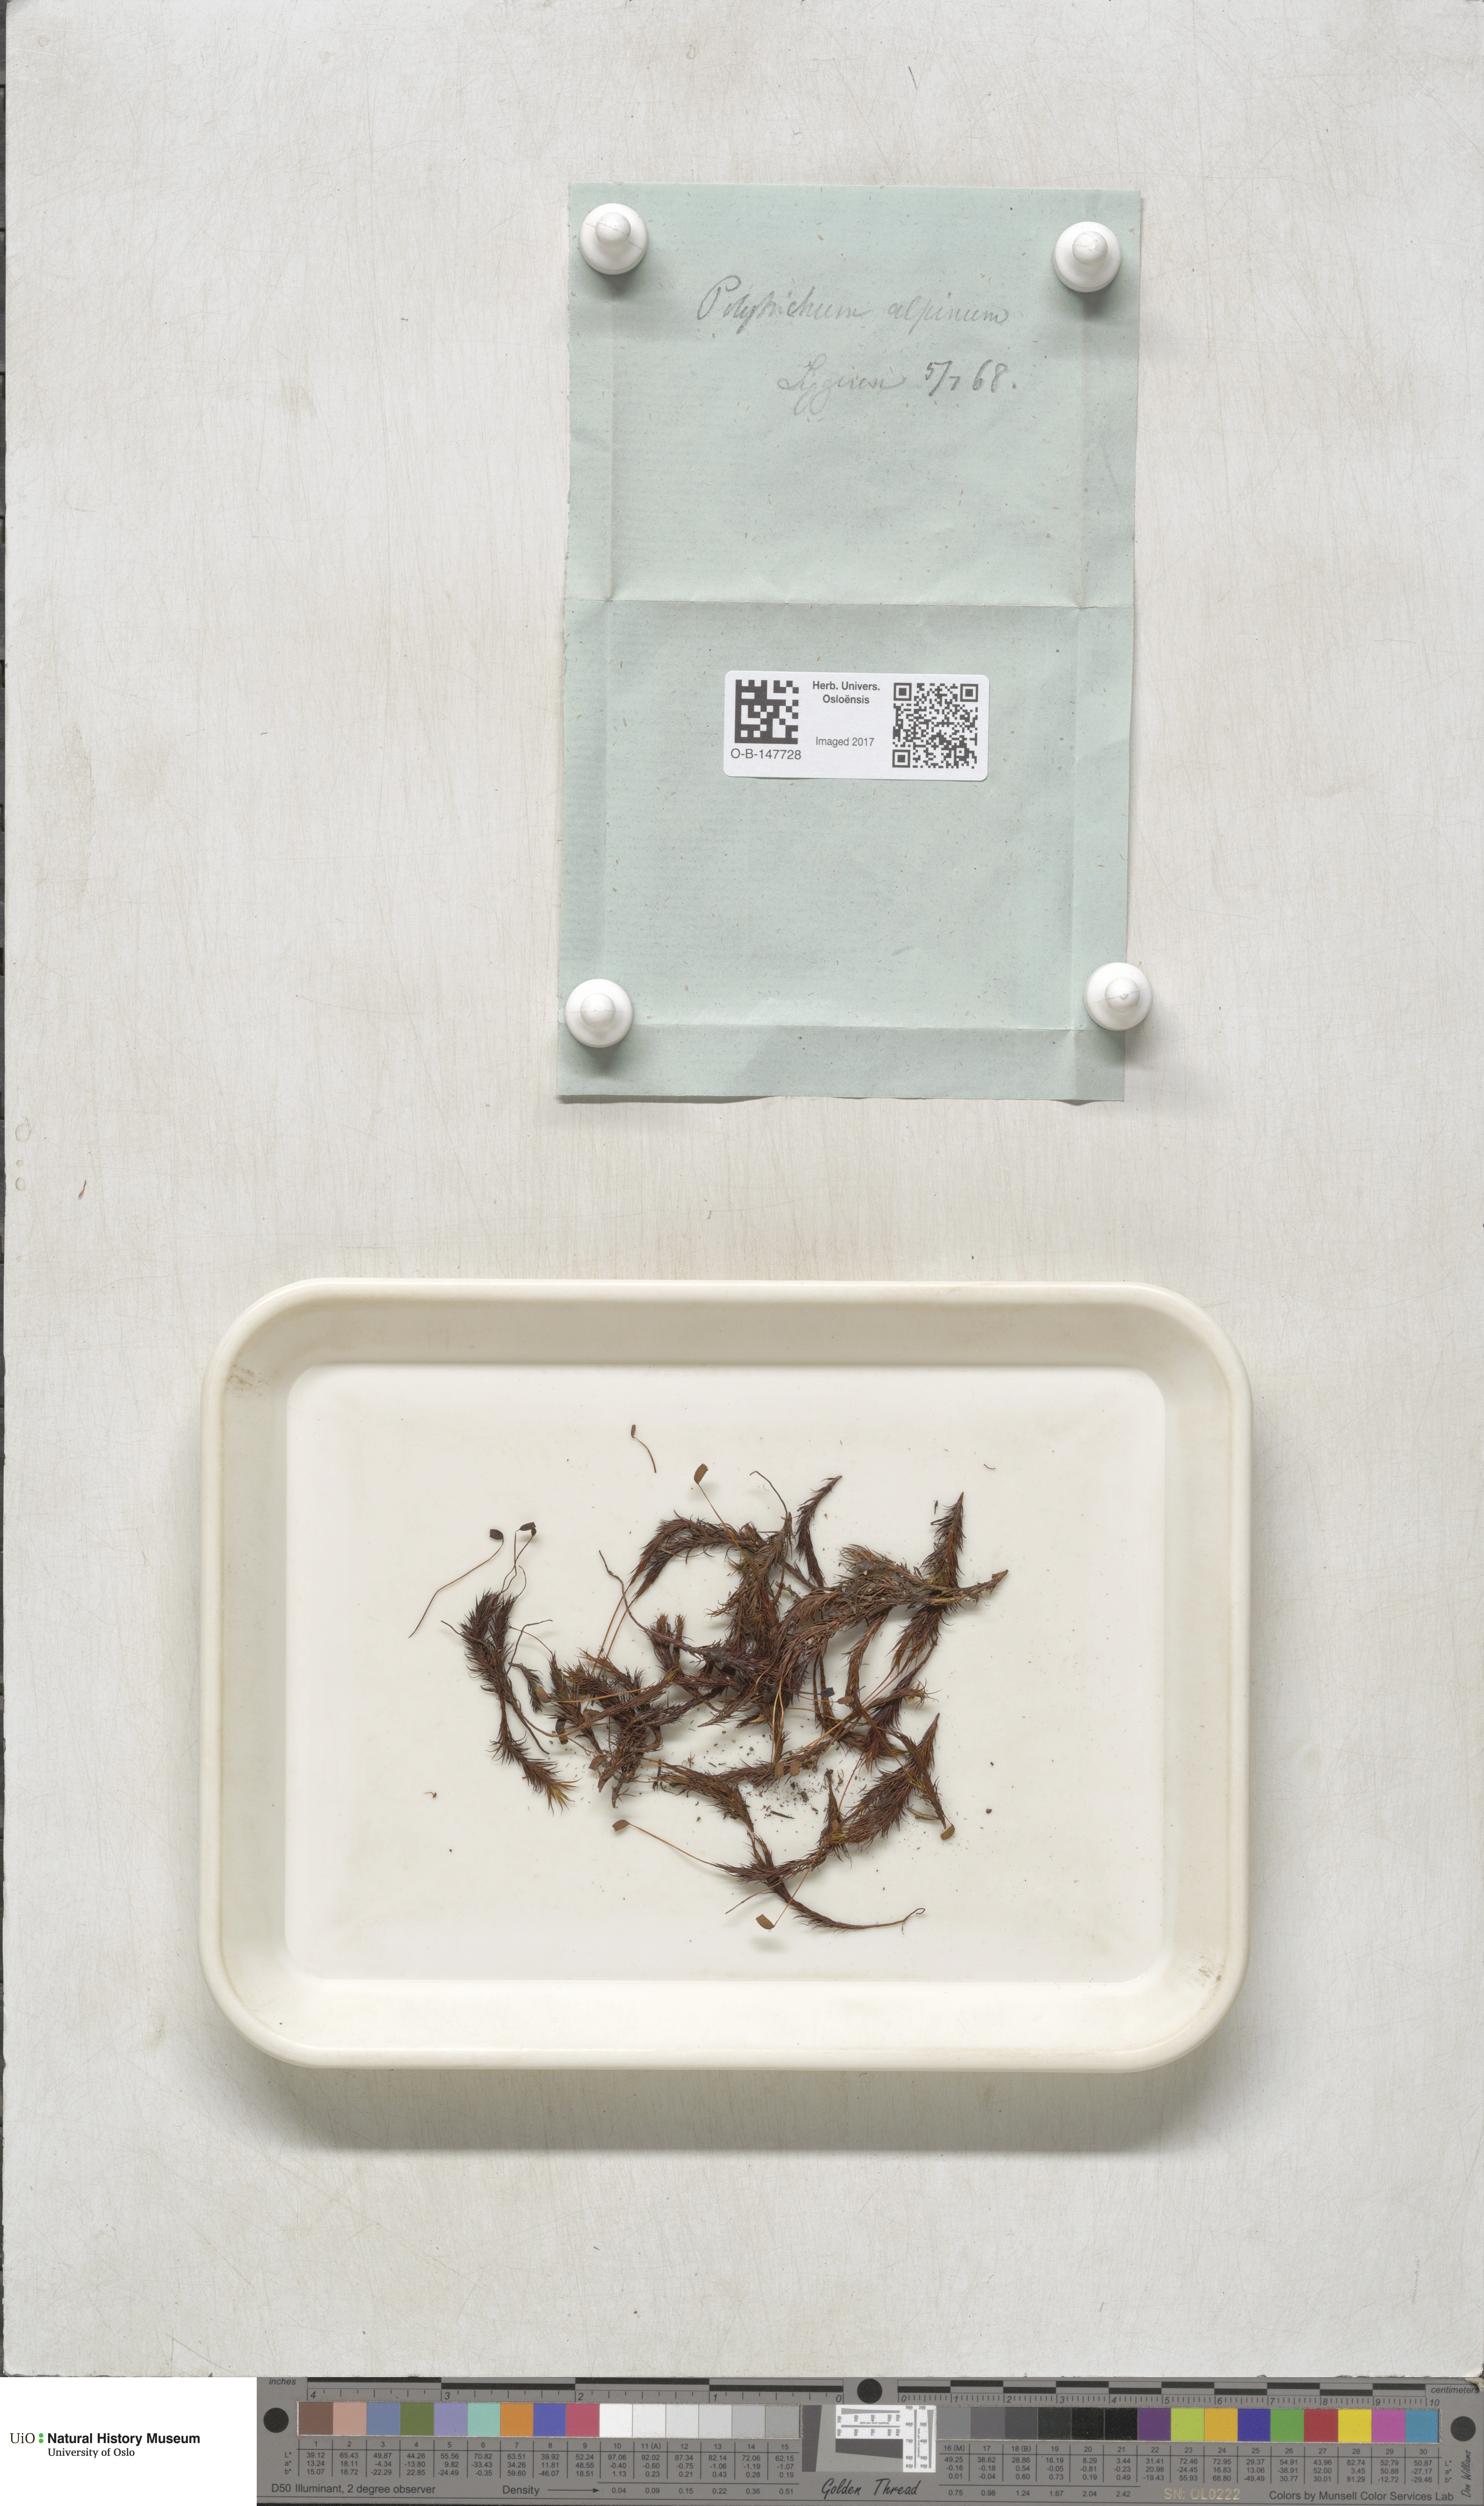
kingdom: Plantae
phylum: Bryophyta
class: Polytrichopsida
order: Polytrichales
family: Polytrichaceae
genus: Polytrichastrum
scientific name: Polytrichastrum alpinum
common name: Alpine haircap
